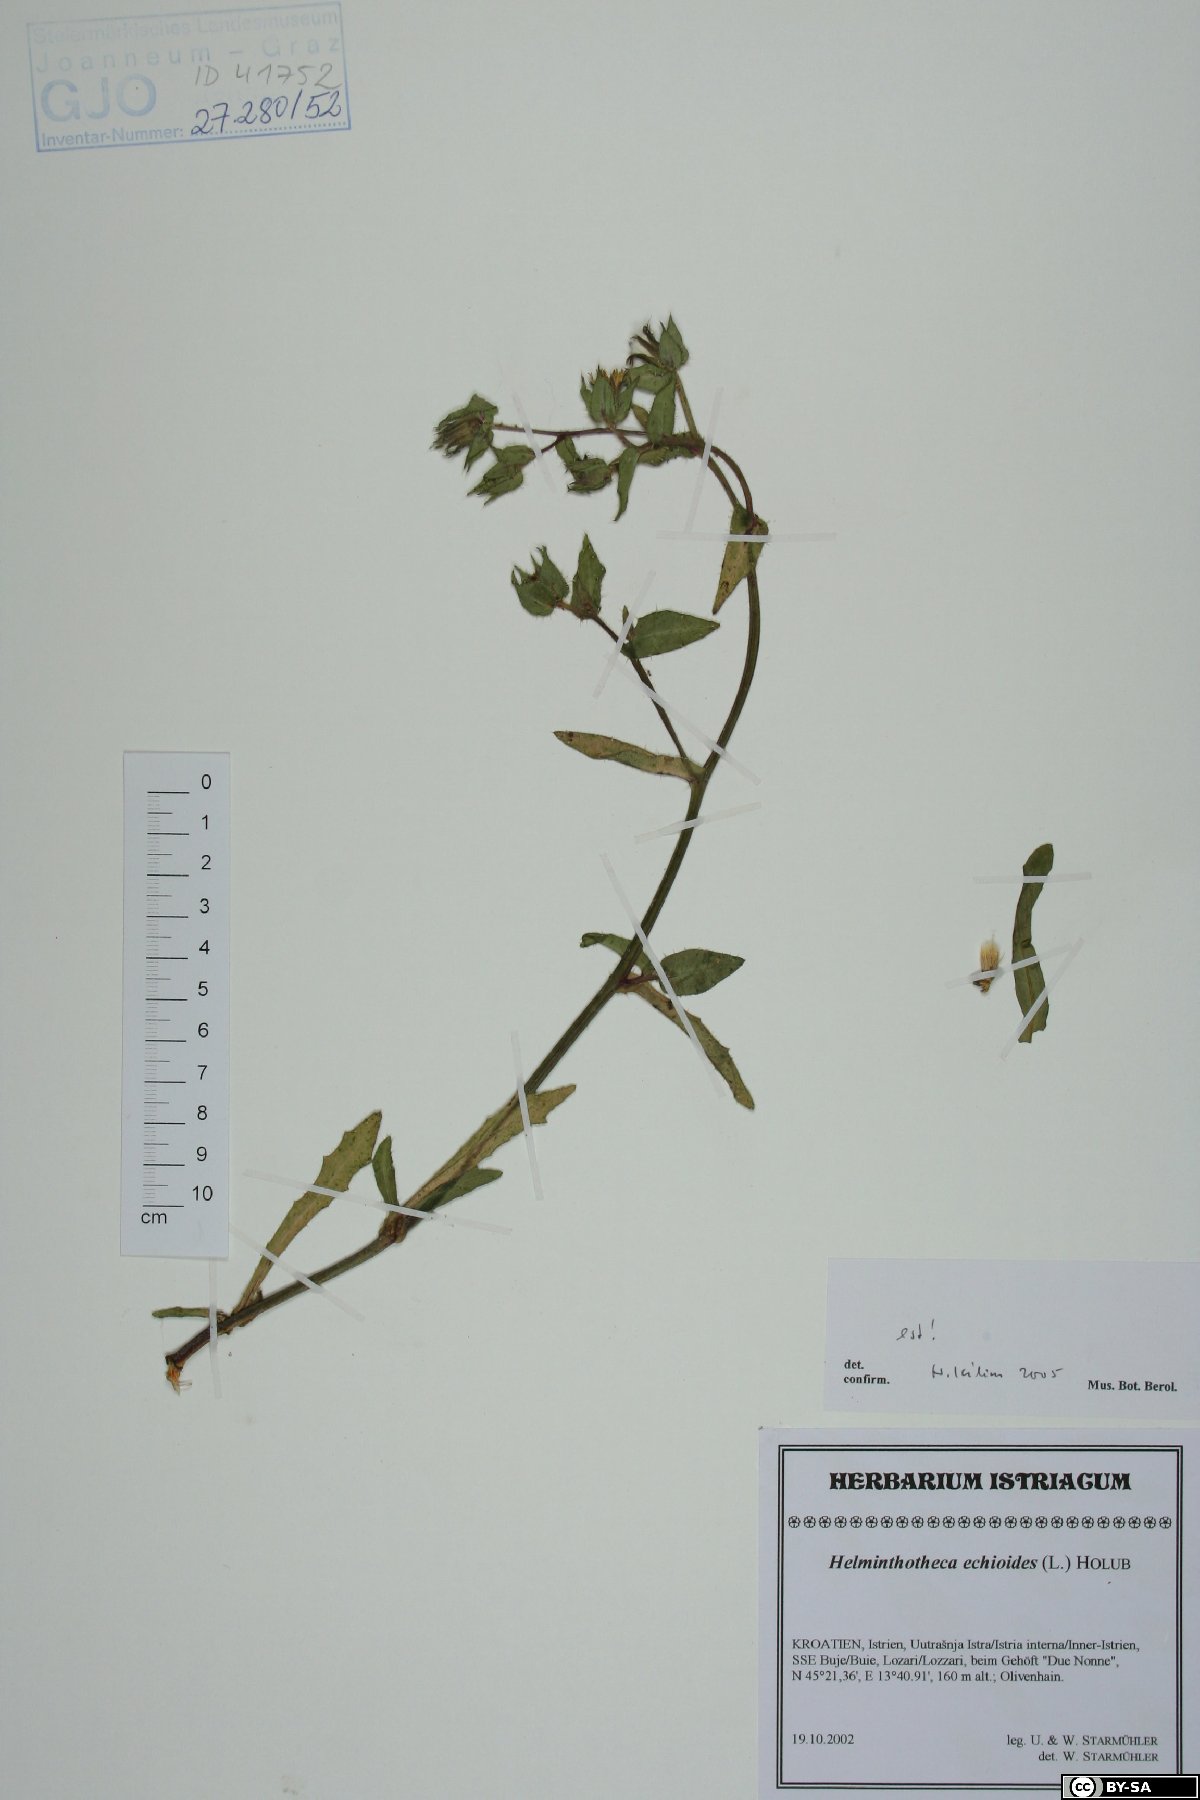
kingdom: Plantae
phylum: Tracheophyta
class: Magnoliopsida
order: Asterales
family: Asteraceae
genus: Helminthotheca
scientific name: Helminthotheca echioides
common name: Ox-tongue
